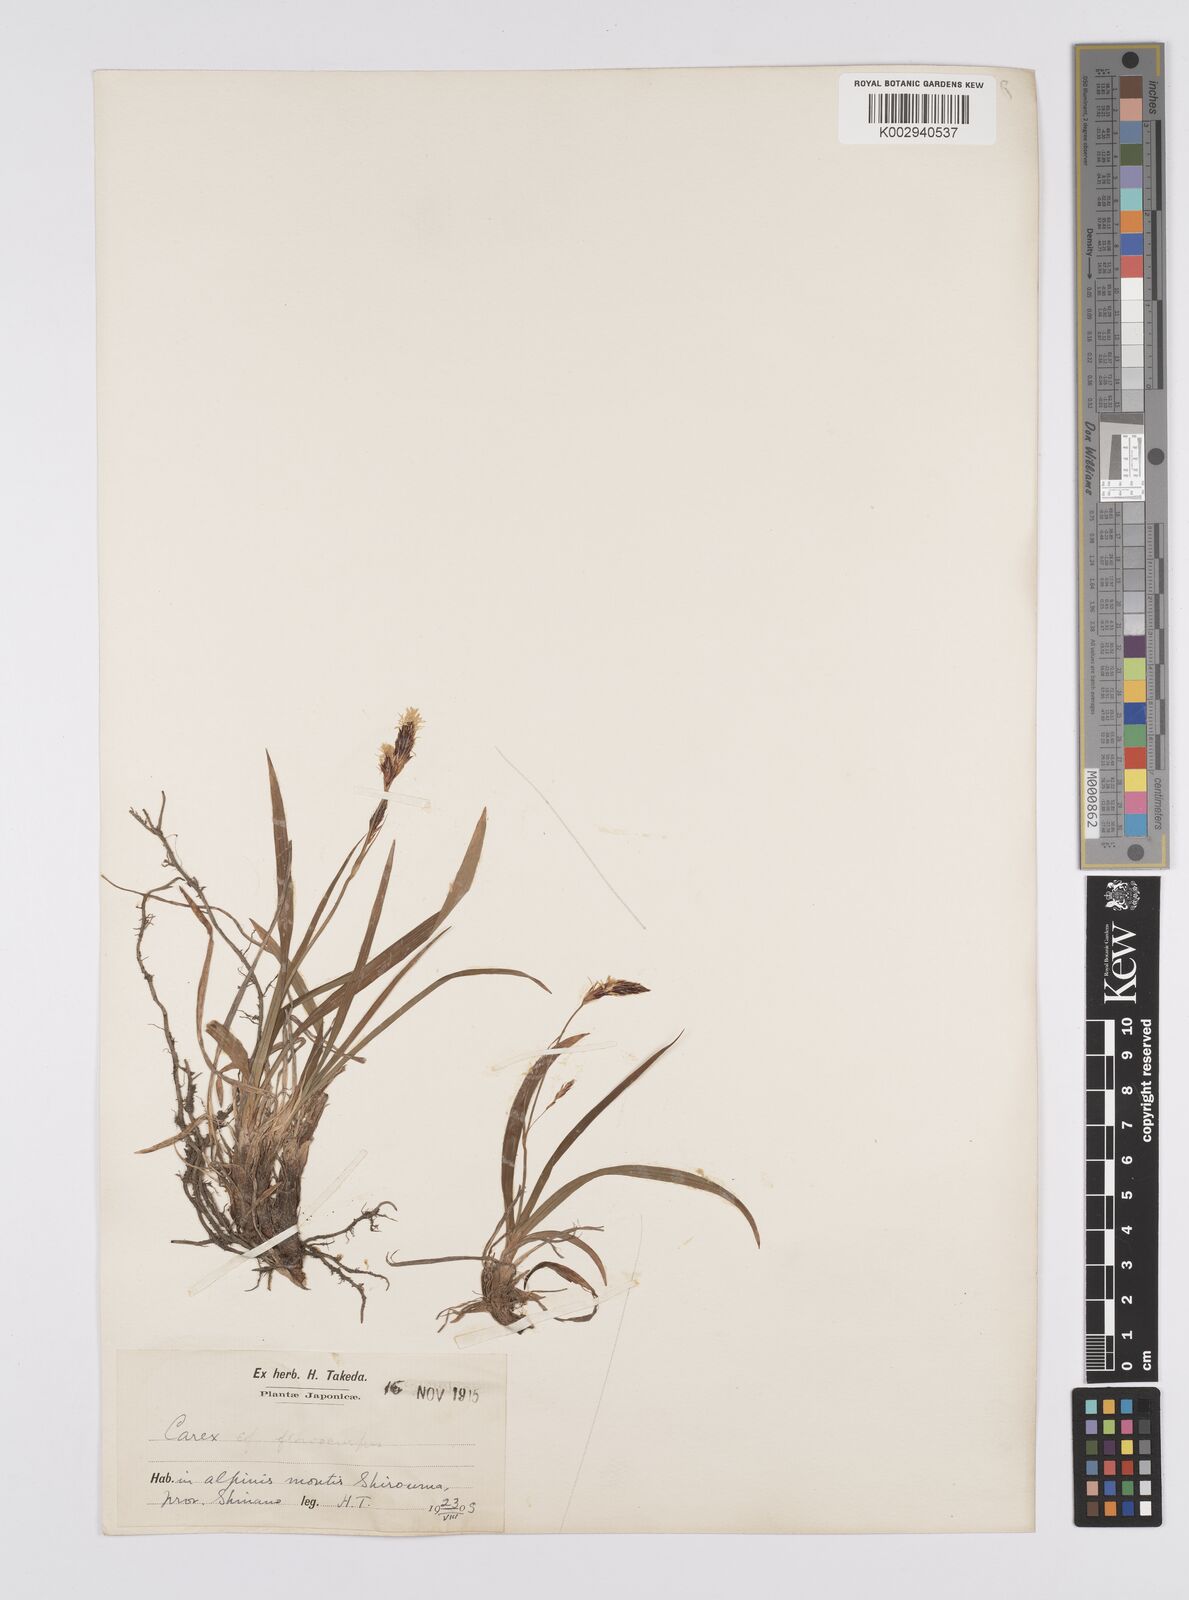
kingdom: Plantae
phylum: Tracheophyta
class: Liliopsida
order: Poales
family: Cyperaceae
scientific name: Cyperaceae
